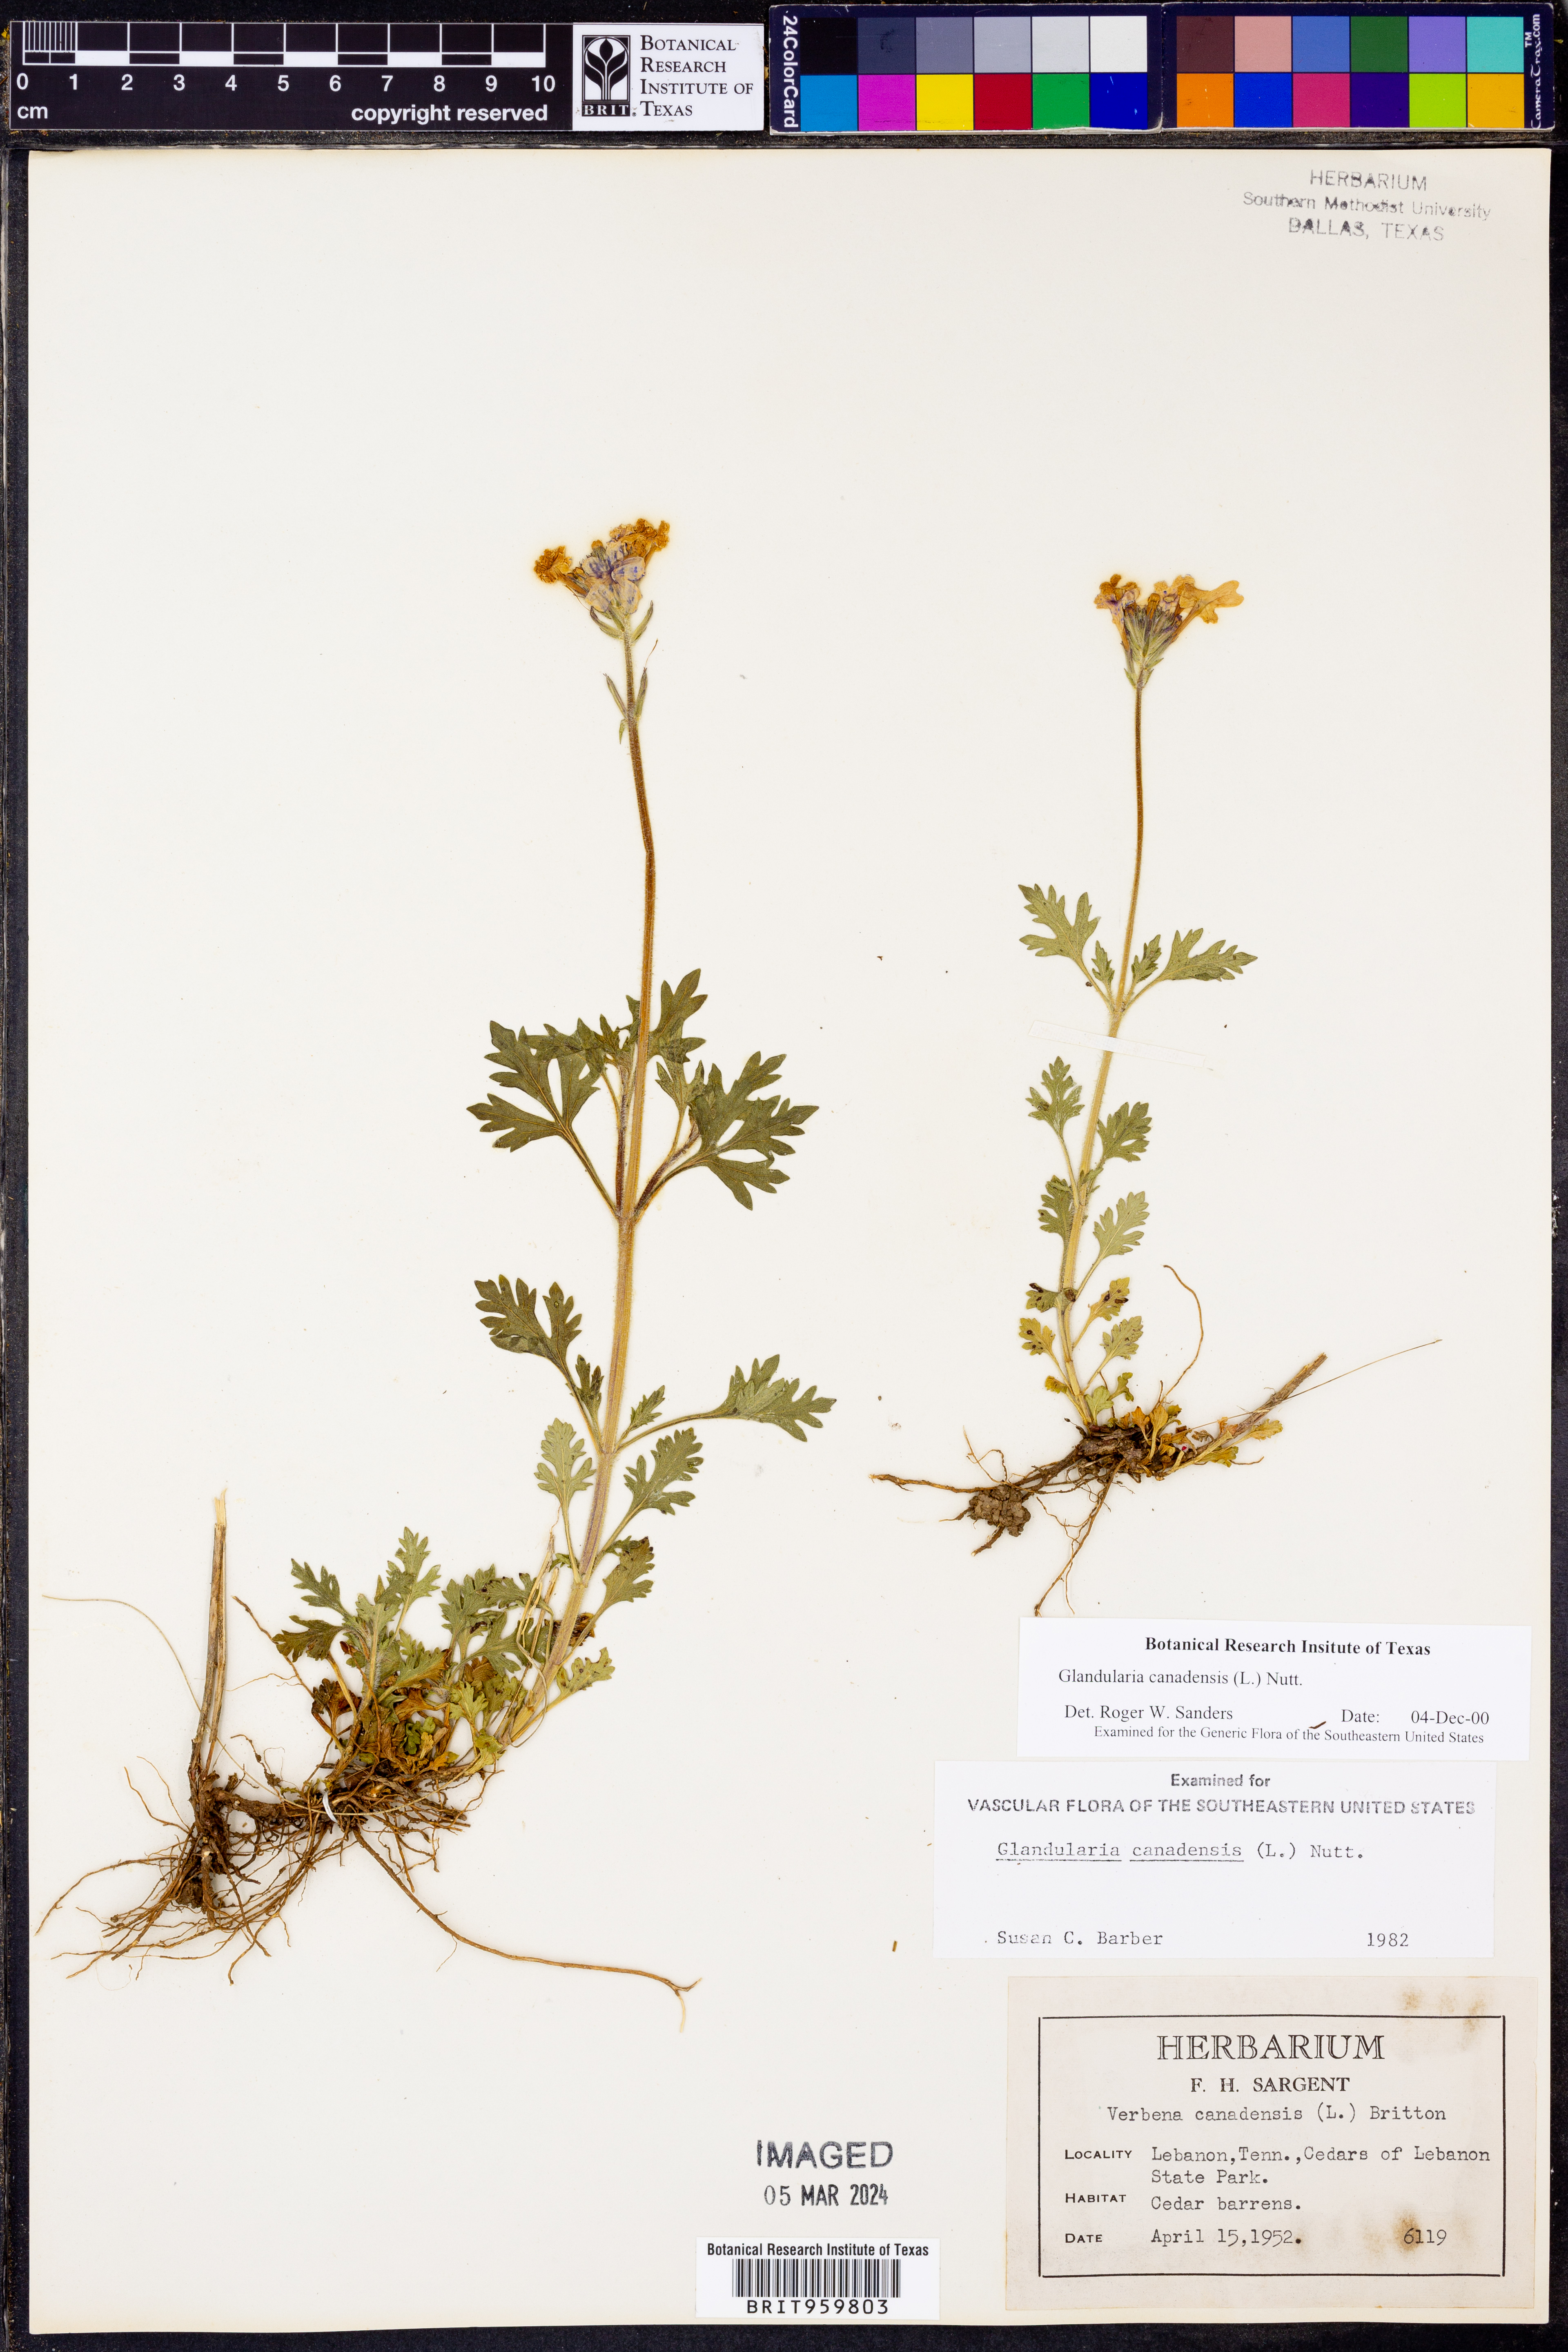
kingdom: Plantae
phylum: Tracheophyta
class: Magnoliopsida
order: Lamiales
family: Verbenaceae
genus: Verbena
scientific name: Verbena canadensis
